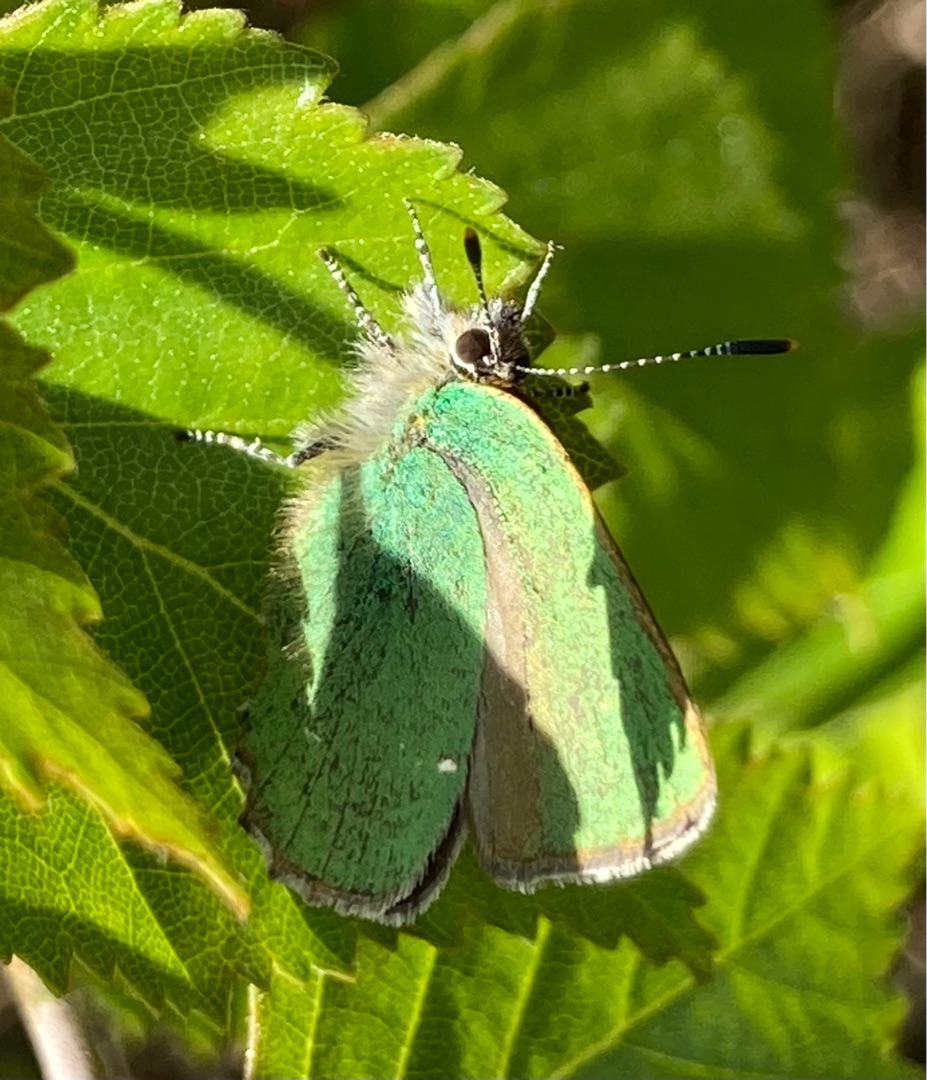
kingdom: Animalia
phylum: Arthropoda
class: Insecta
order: Lepidoptera
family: Lycaenidae
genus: Callophrys
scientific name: Callophrys rubi
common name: Grøn busksommerfugl
